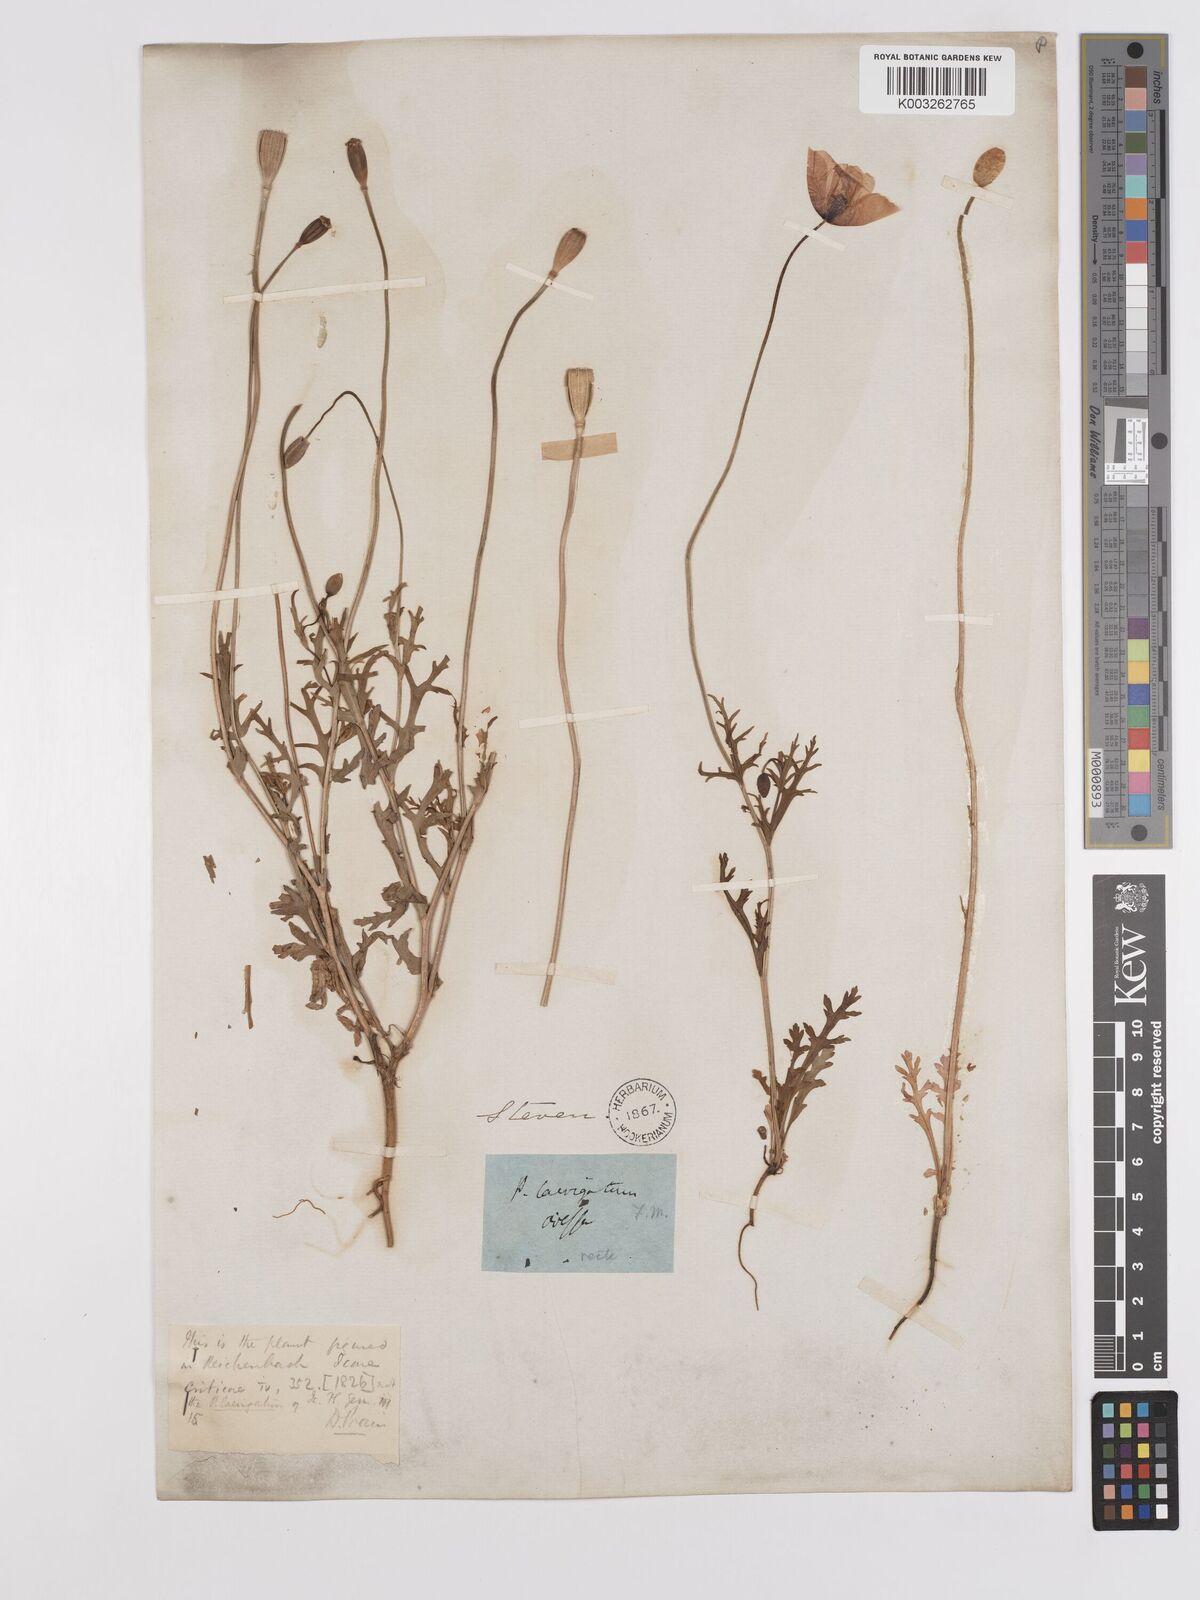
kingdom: Plantae
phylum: Tracheophyta
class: Magnoliopsida
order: Ranunculales
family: Papaveraceae
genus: Papaver
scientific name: Papaver laevigatum
